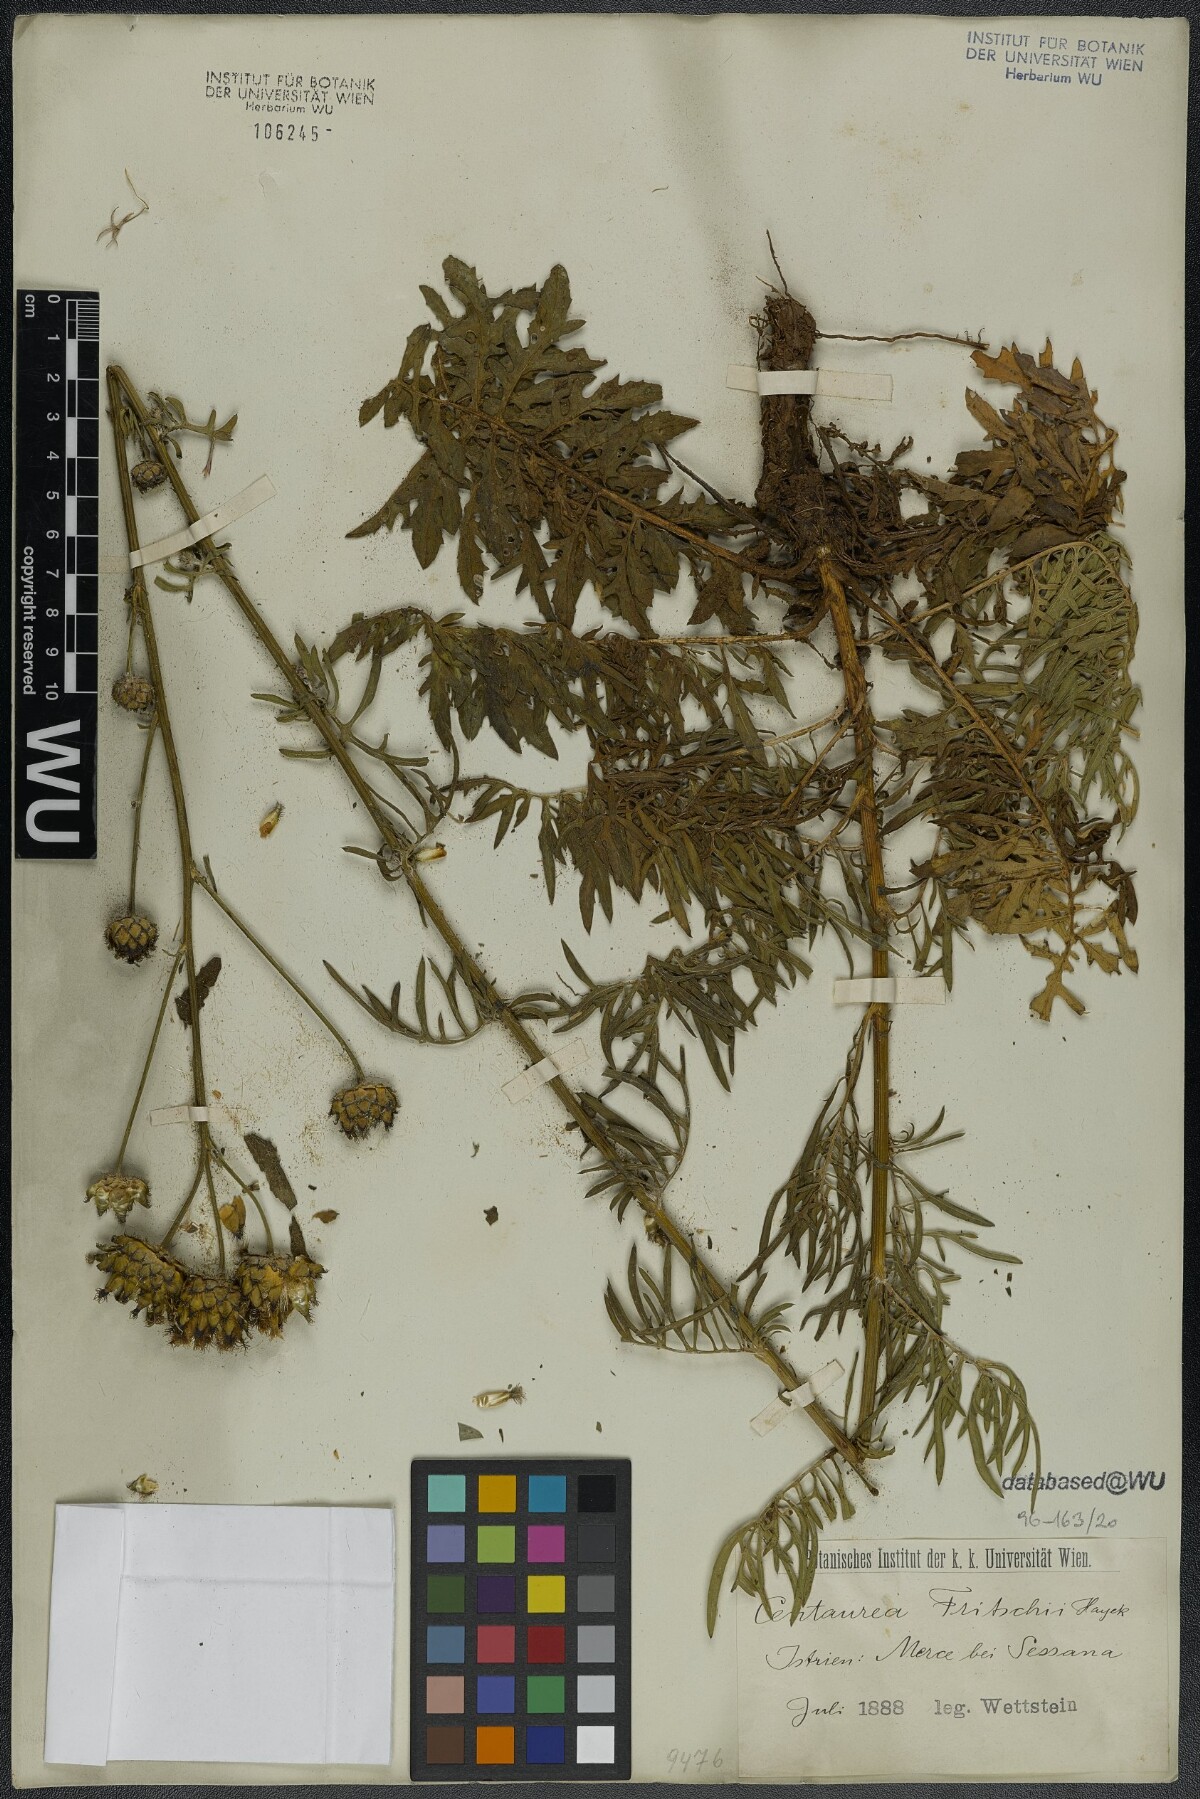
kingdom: Plantae
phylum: Tracheophyta
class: Magnoliopsida
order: Asterales
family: Asteraceae
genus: Centaurea
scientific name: Centaurea scabiosa
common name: Greater knapweed
